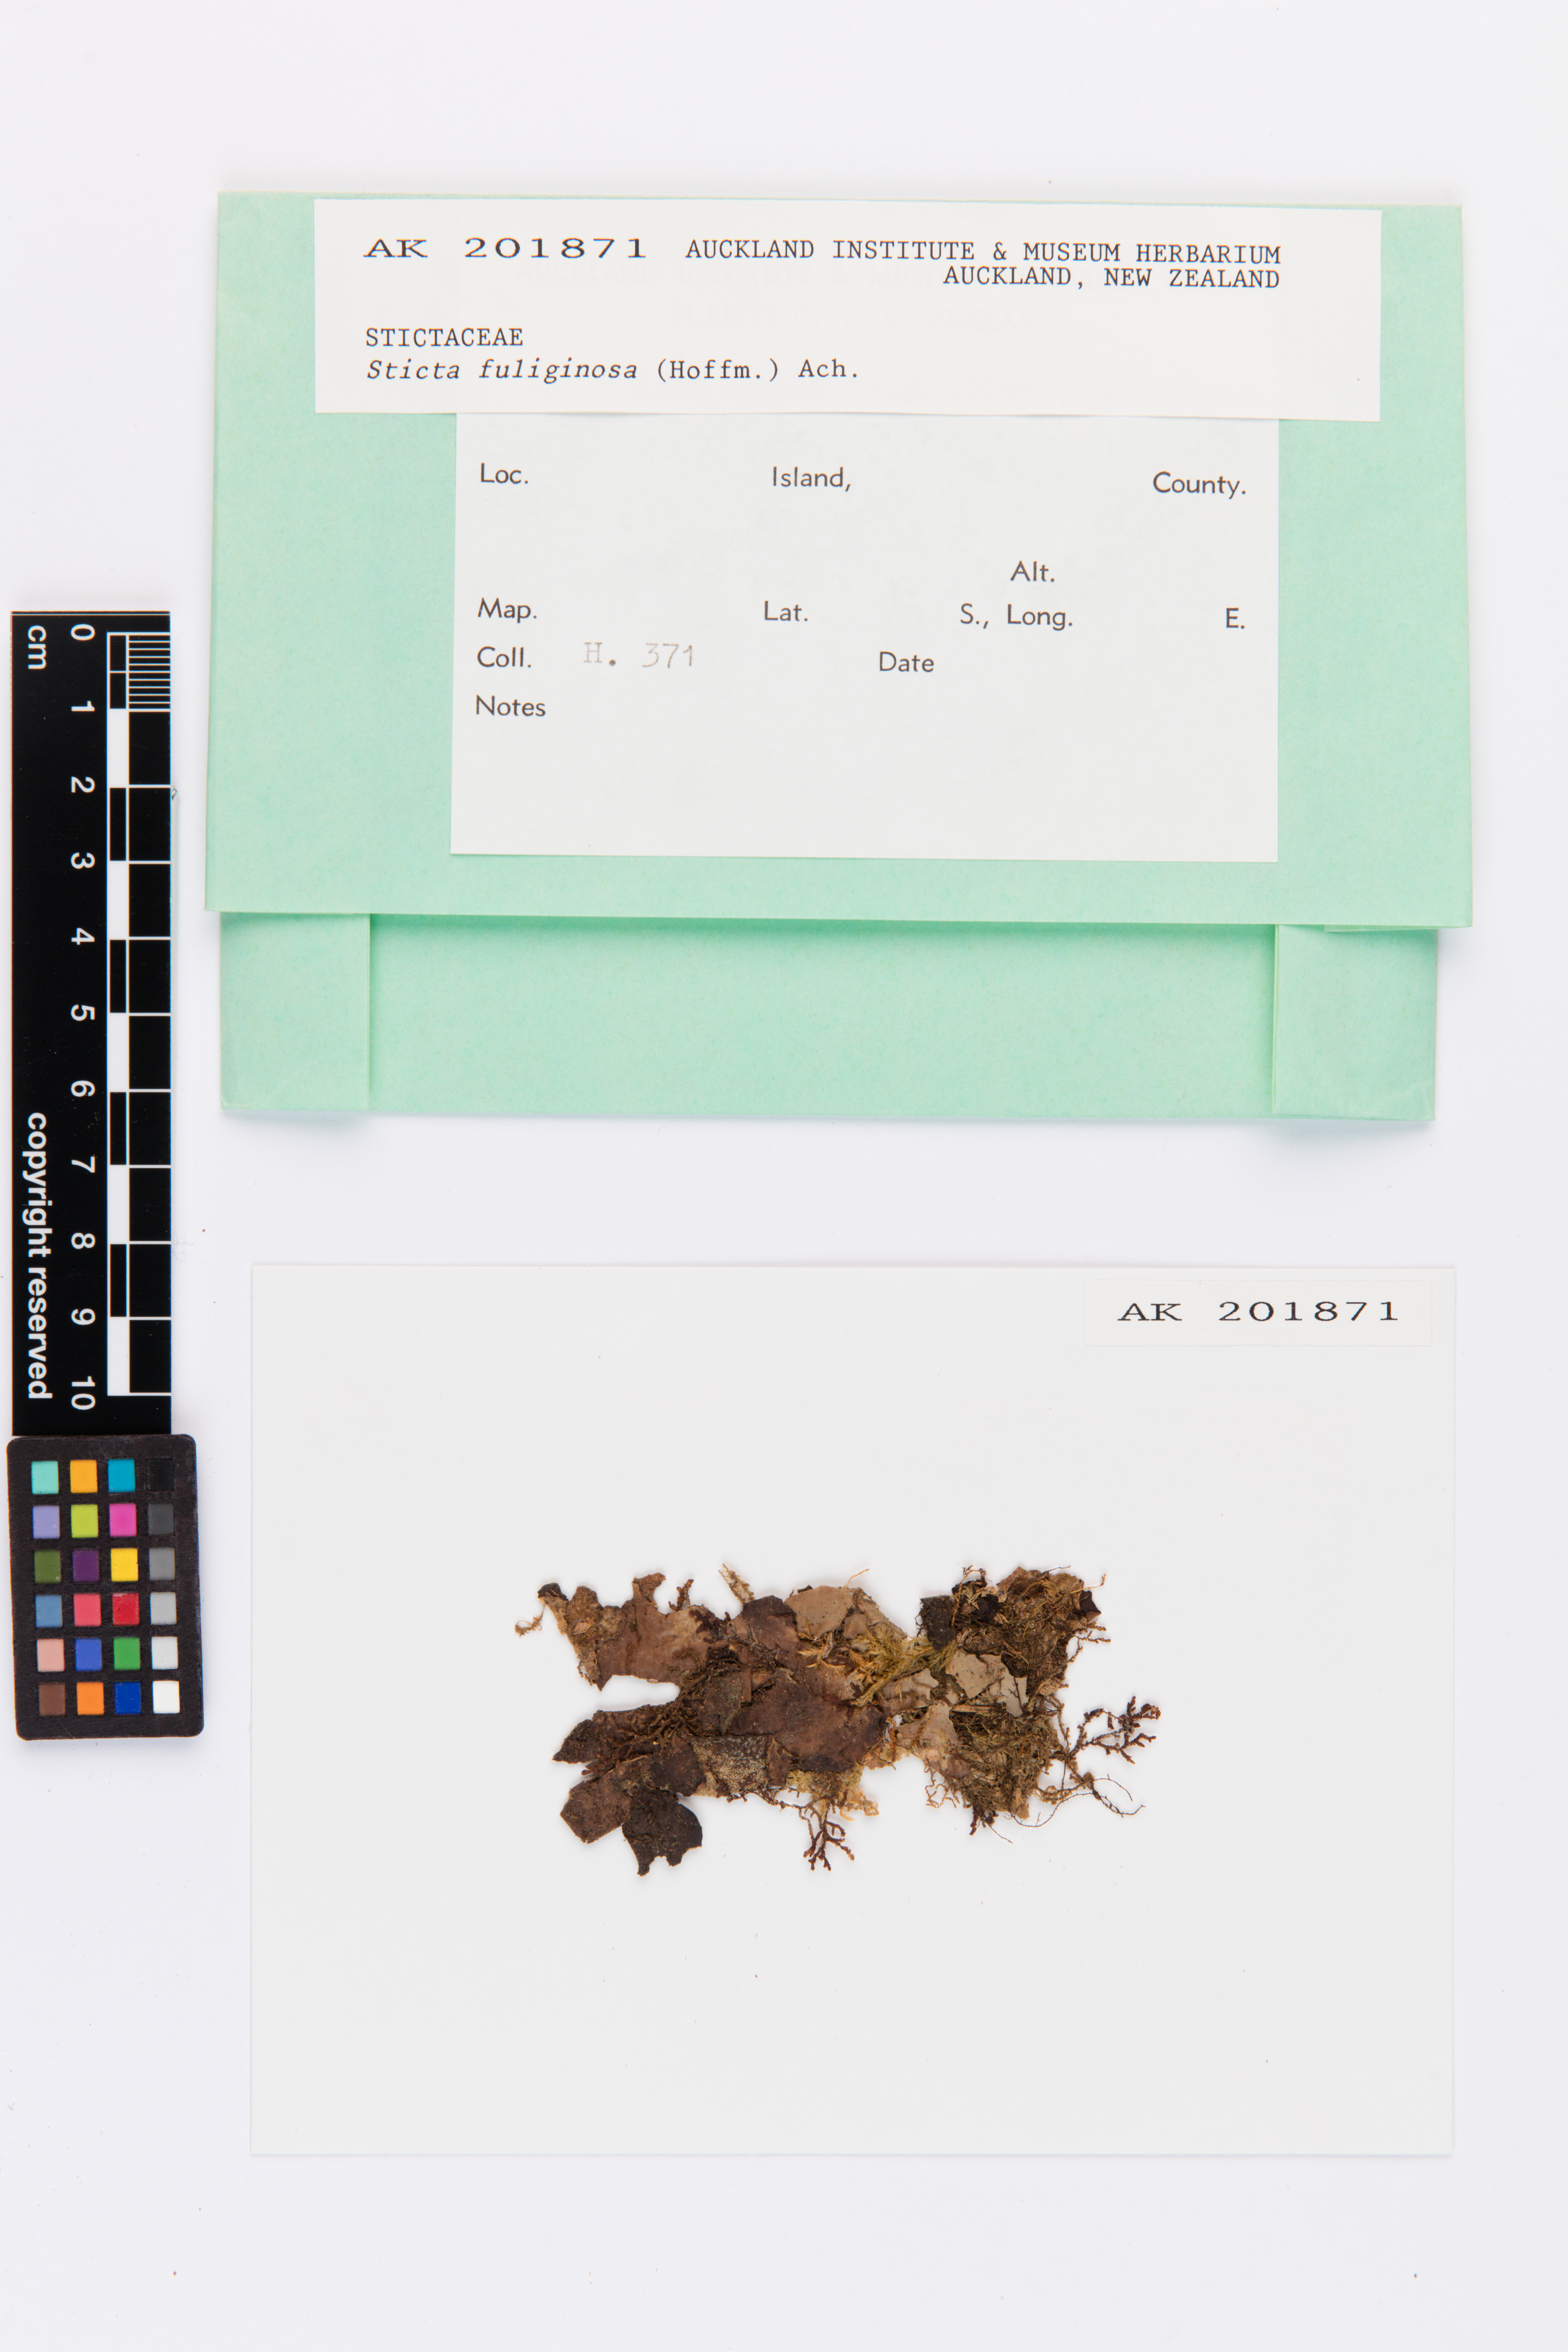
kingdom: Fungi
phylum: Ascomycota
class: Lecanoromycetes
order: Peltigerales
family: Lobariaceae
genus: Sticta
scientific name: Sticta fuliginosa
